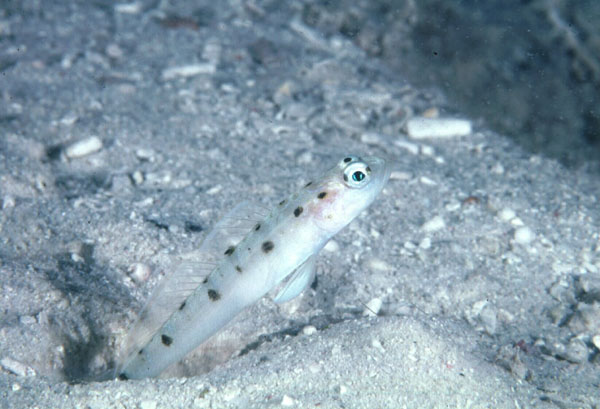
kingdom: Animalia
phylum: Chordata
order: Perciformes
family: Gobiidae
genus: Vanderhorstia
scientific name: Vanderhorstia ambanoro
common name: Ambanoro goby
